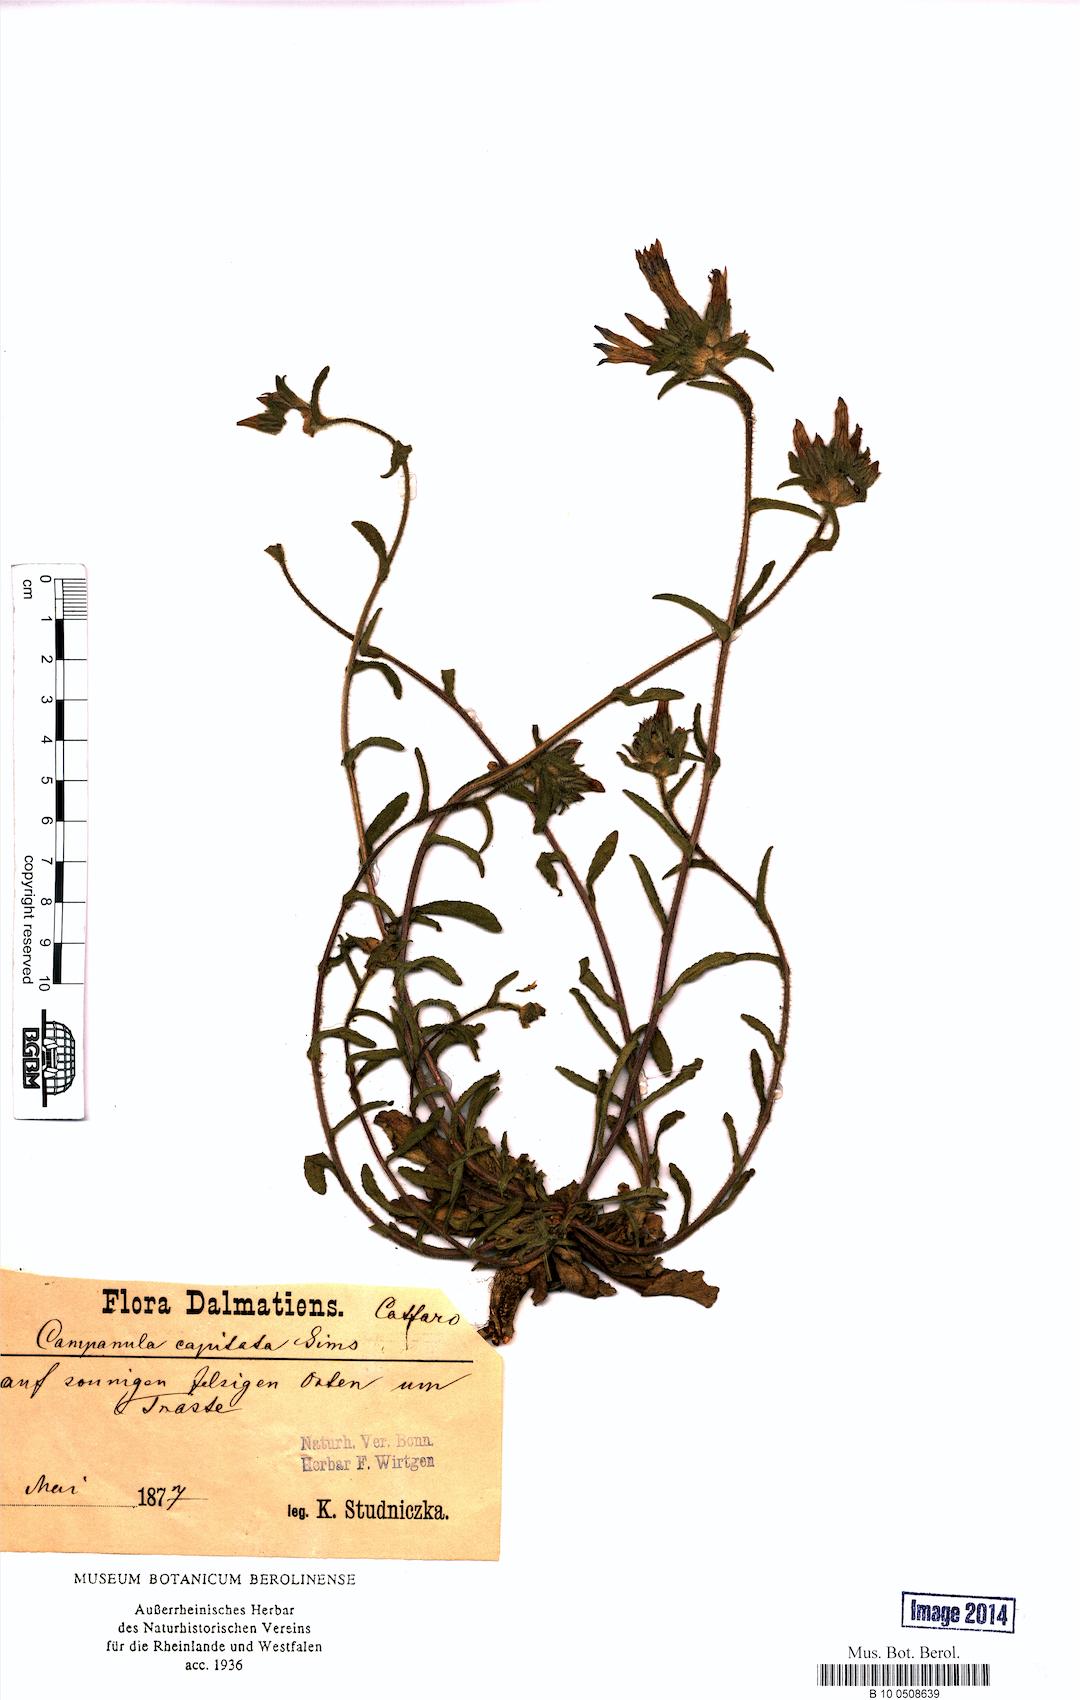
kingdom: Plantae
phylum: Tracheophyta
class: Magnoliopsida
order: Asterales
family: Campanulaceae
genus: Campanula
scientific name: Campanula lingulata
